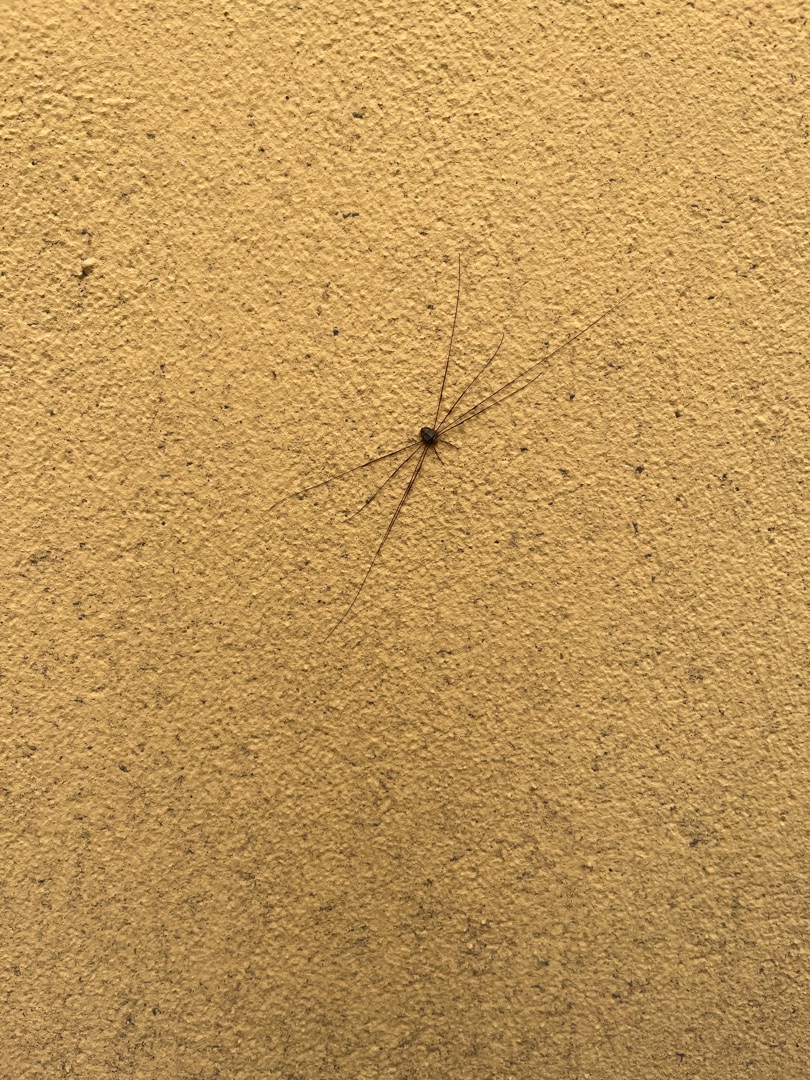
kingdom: Animalia
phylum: Arthropoda
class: Arachnida
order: Opiliones
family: Phalangiidae
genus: Dicranopalpus
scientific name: Dicranopalpus ramosus
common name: Gaffelmejer
